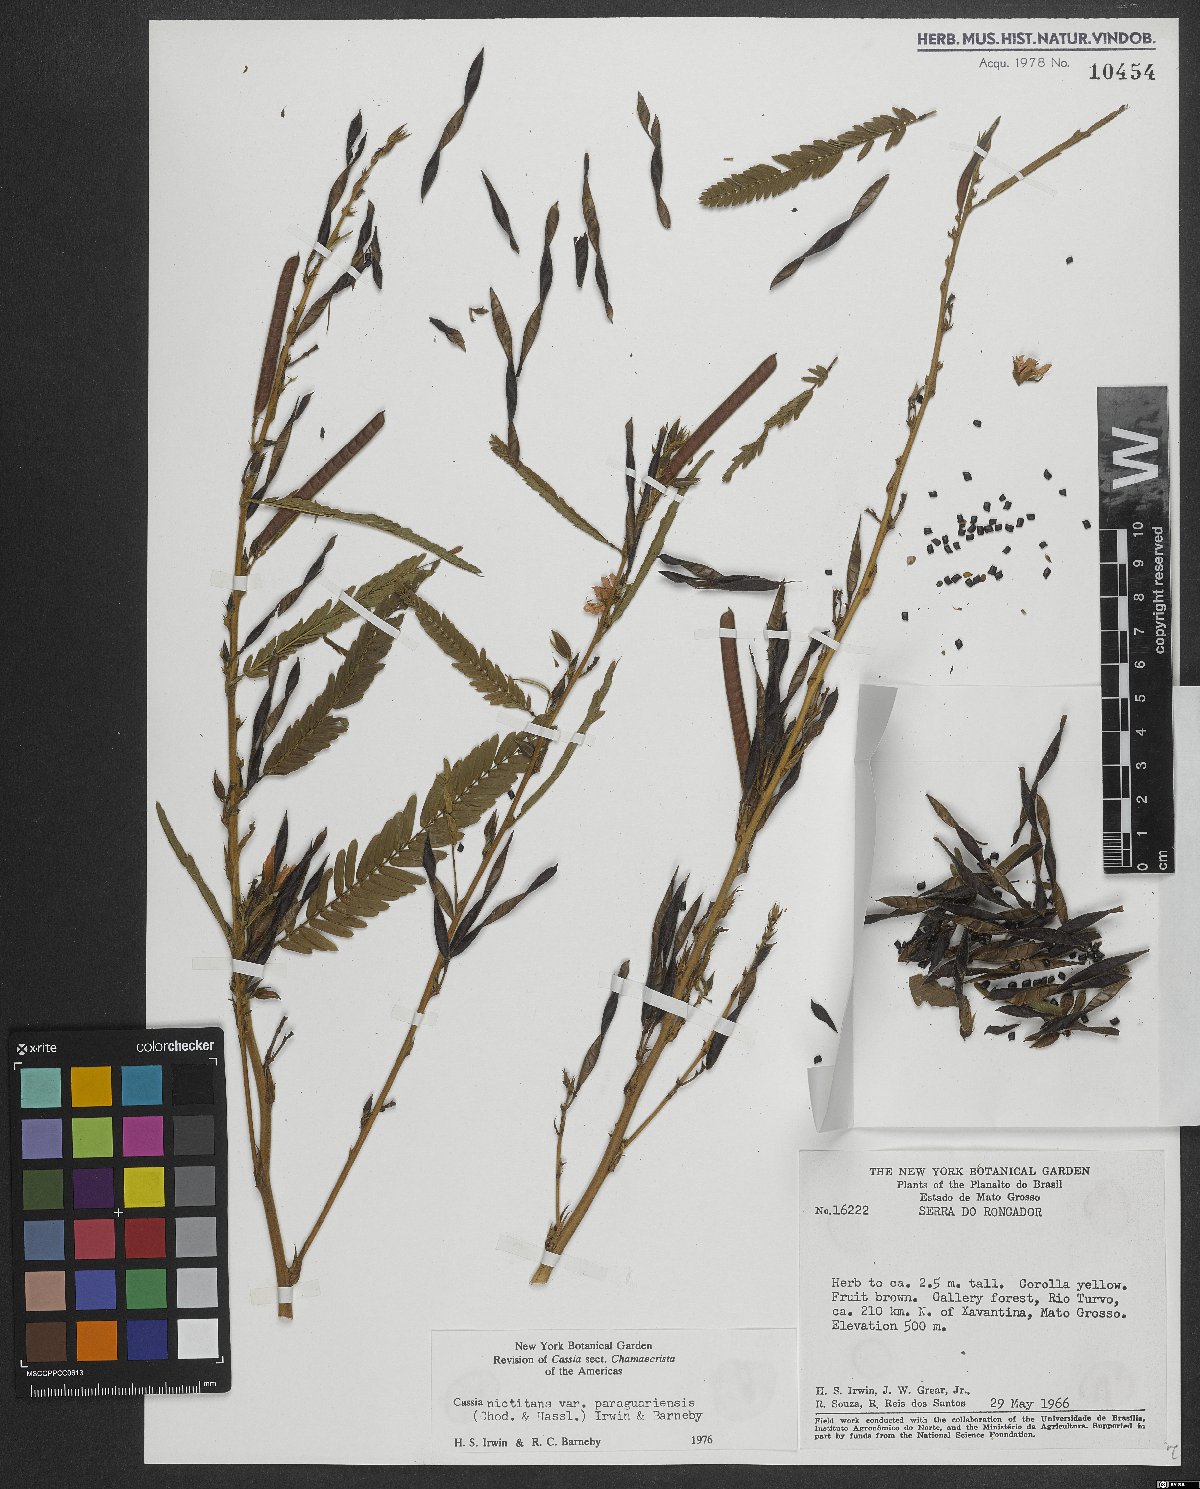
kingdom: Plantae
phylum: Tracheophyta
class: Magnoliopsida
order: Fabales
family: Fabaceae
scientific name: Fabaceae
